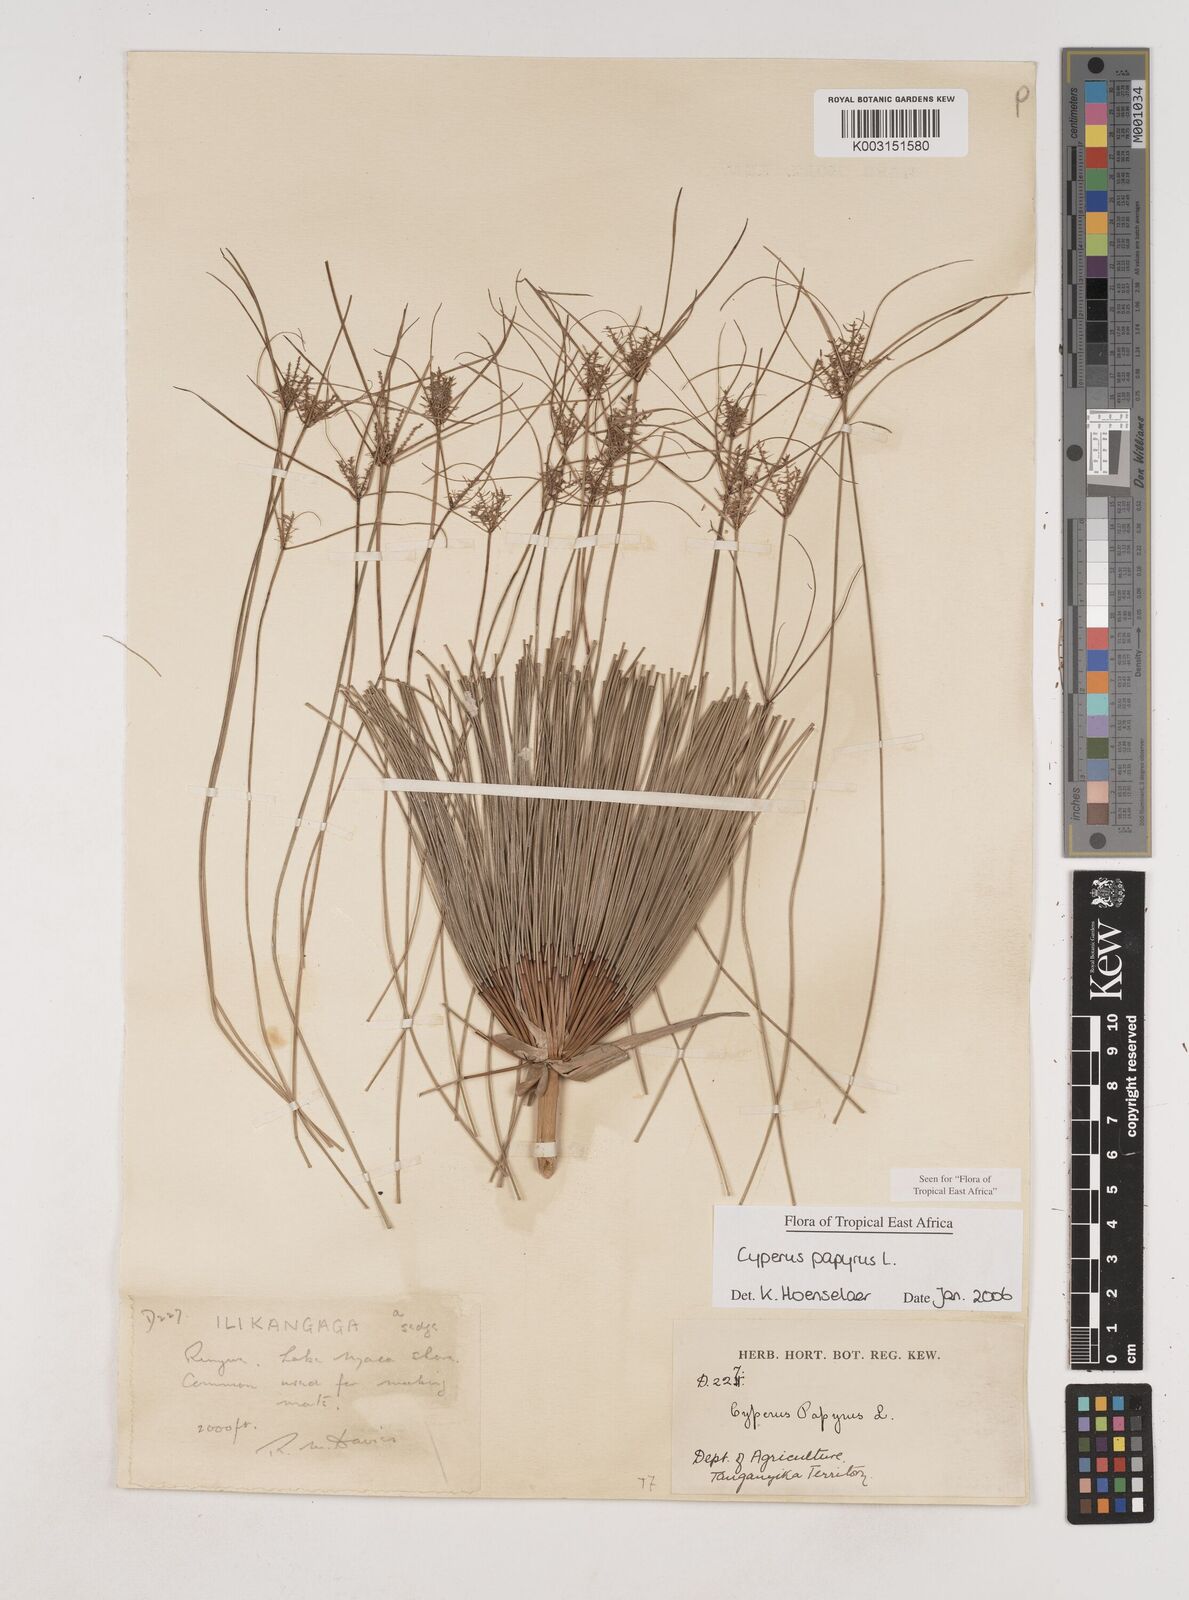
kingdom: Plantae
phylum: Tracheophyta
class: Liliopsida
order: Poales
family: Cyperaceae
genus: Cyperus
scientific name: Cyperus papyrus
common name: Papyrus
